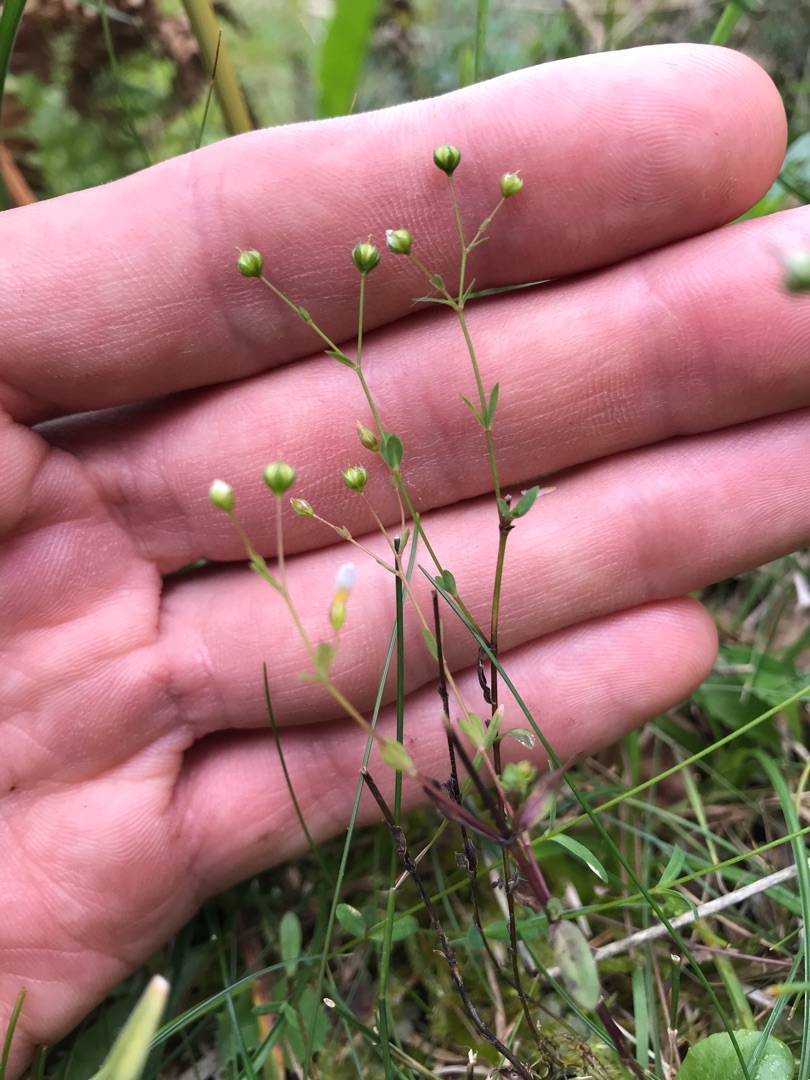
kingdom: Plantae
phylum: Tracheophyta
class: Magnoliopsida
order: Malpighiales
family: Linaceae
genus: Linum
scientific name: Linum catharticum
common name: Vild hør
